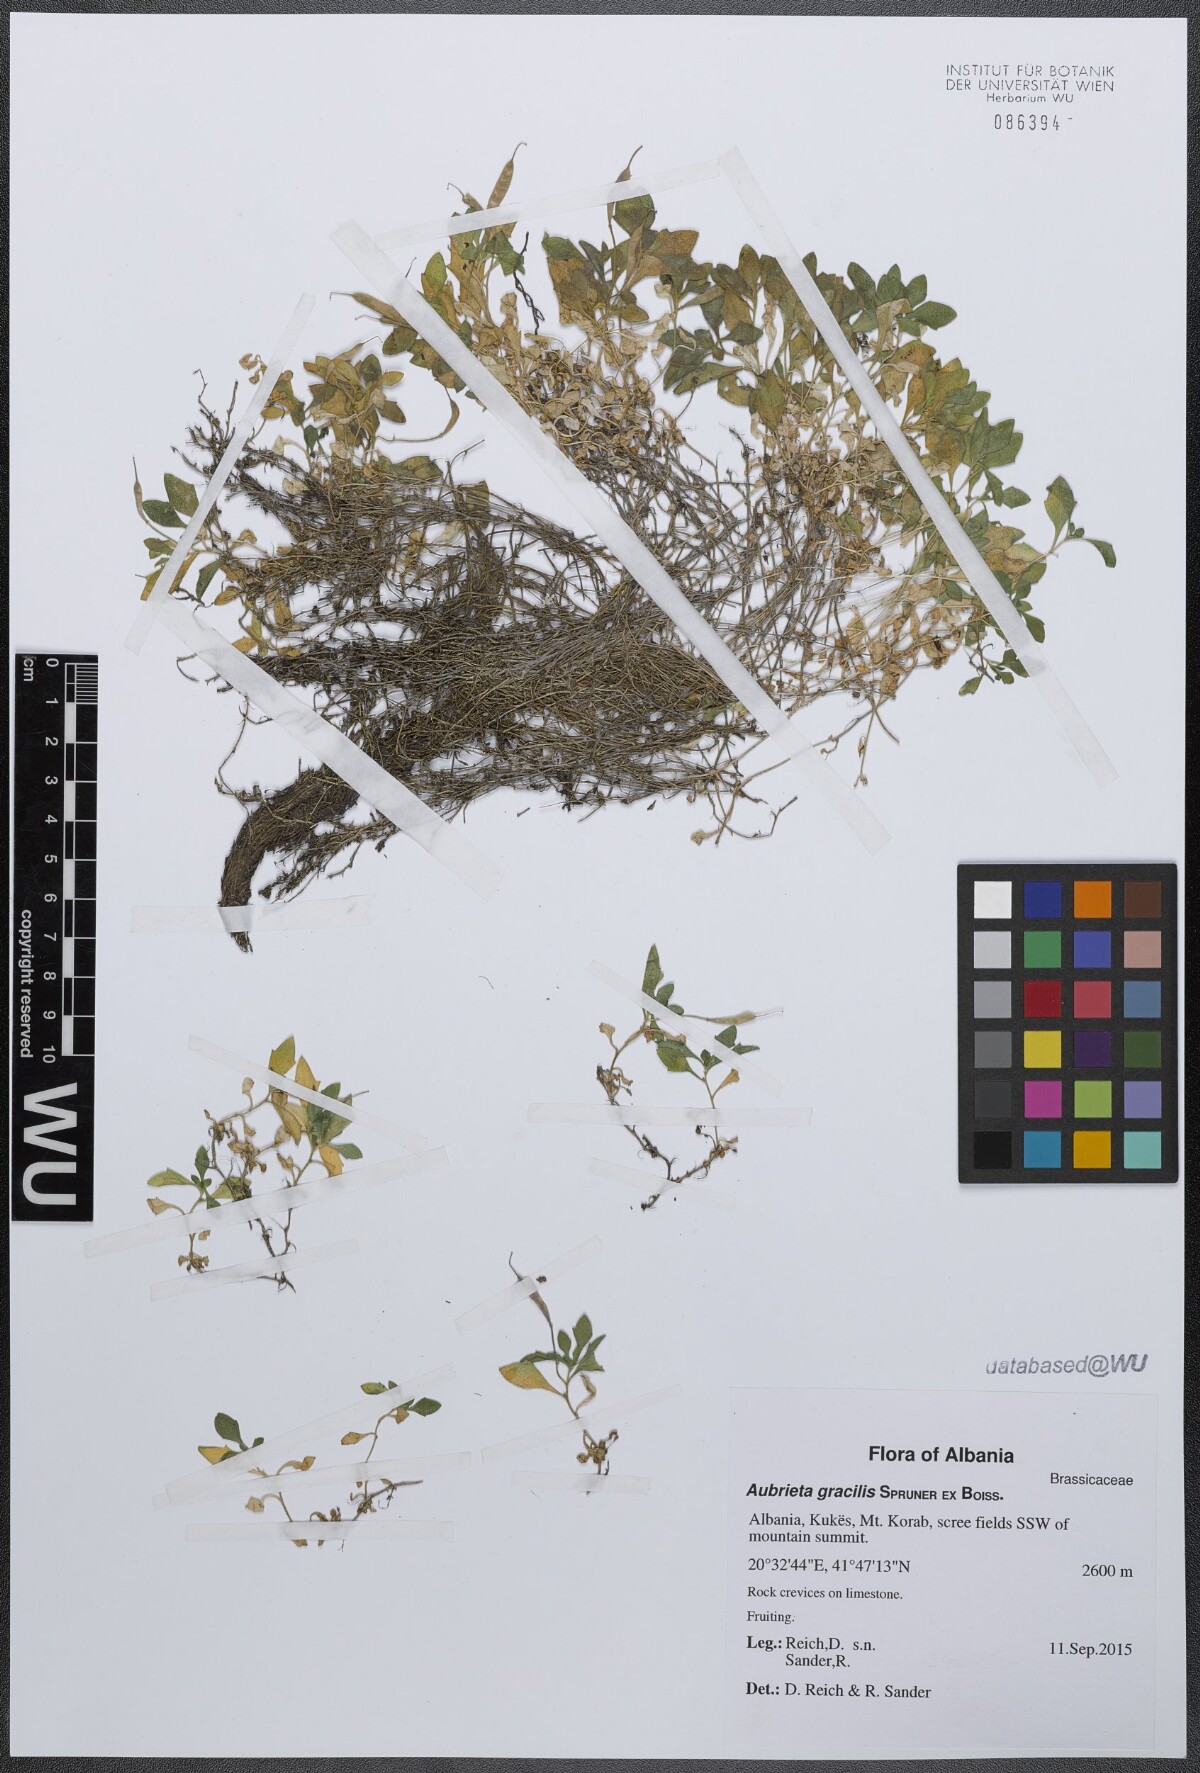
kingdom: Plantae
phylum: Tracheophyta
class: Magnoliopsida
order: Brassicales
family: Brassicaceae
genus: Aubrieta
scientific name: Aubrieta gracilis
